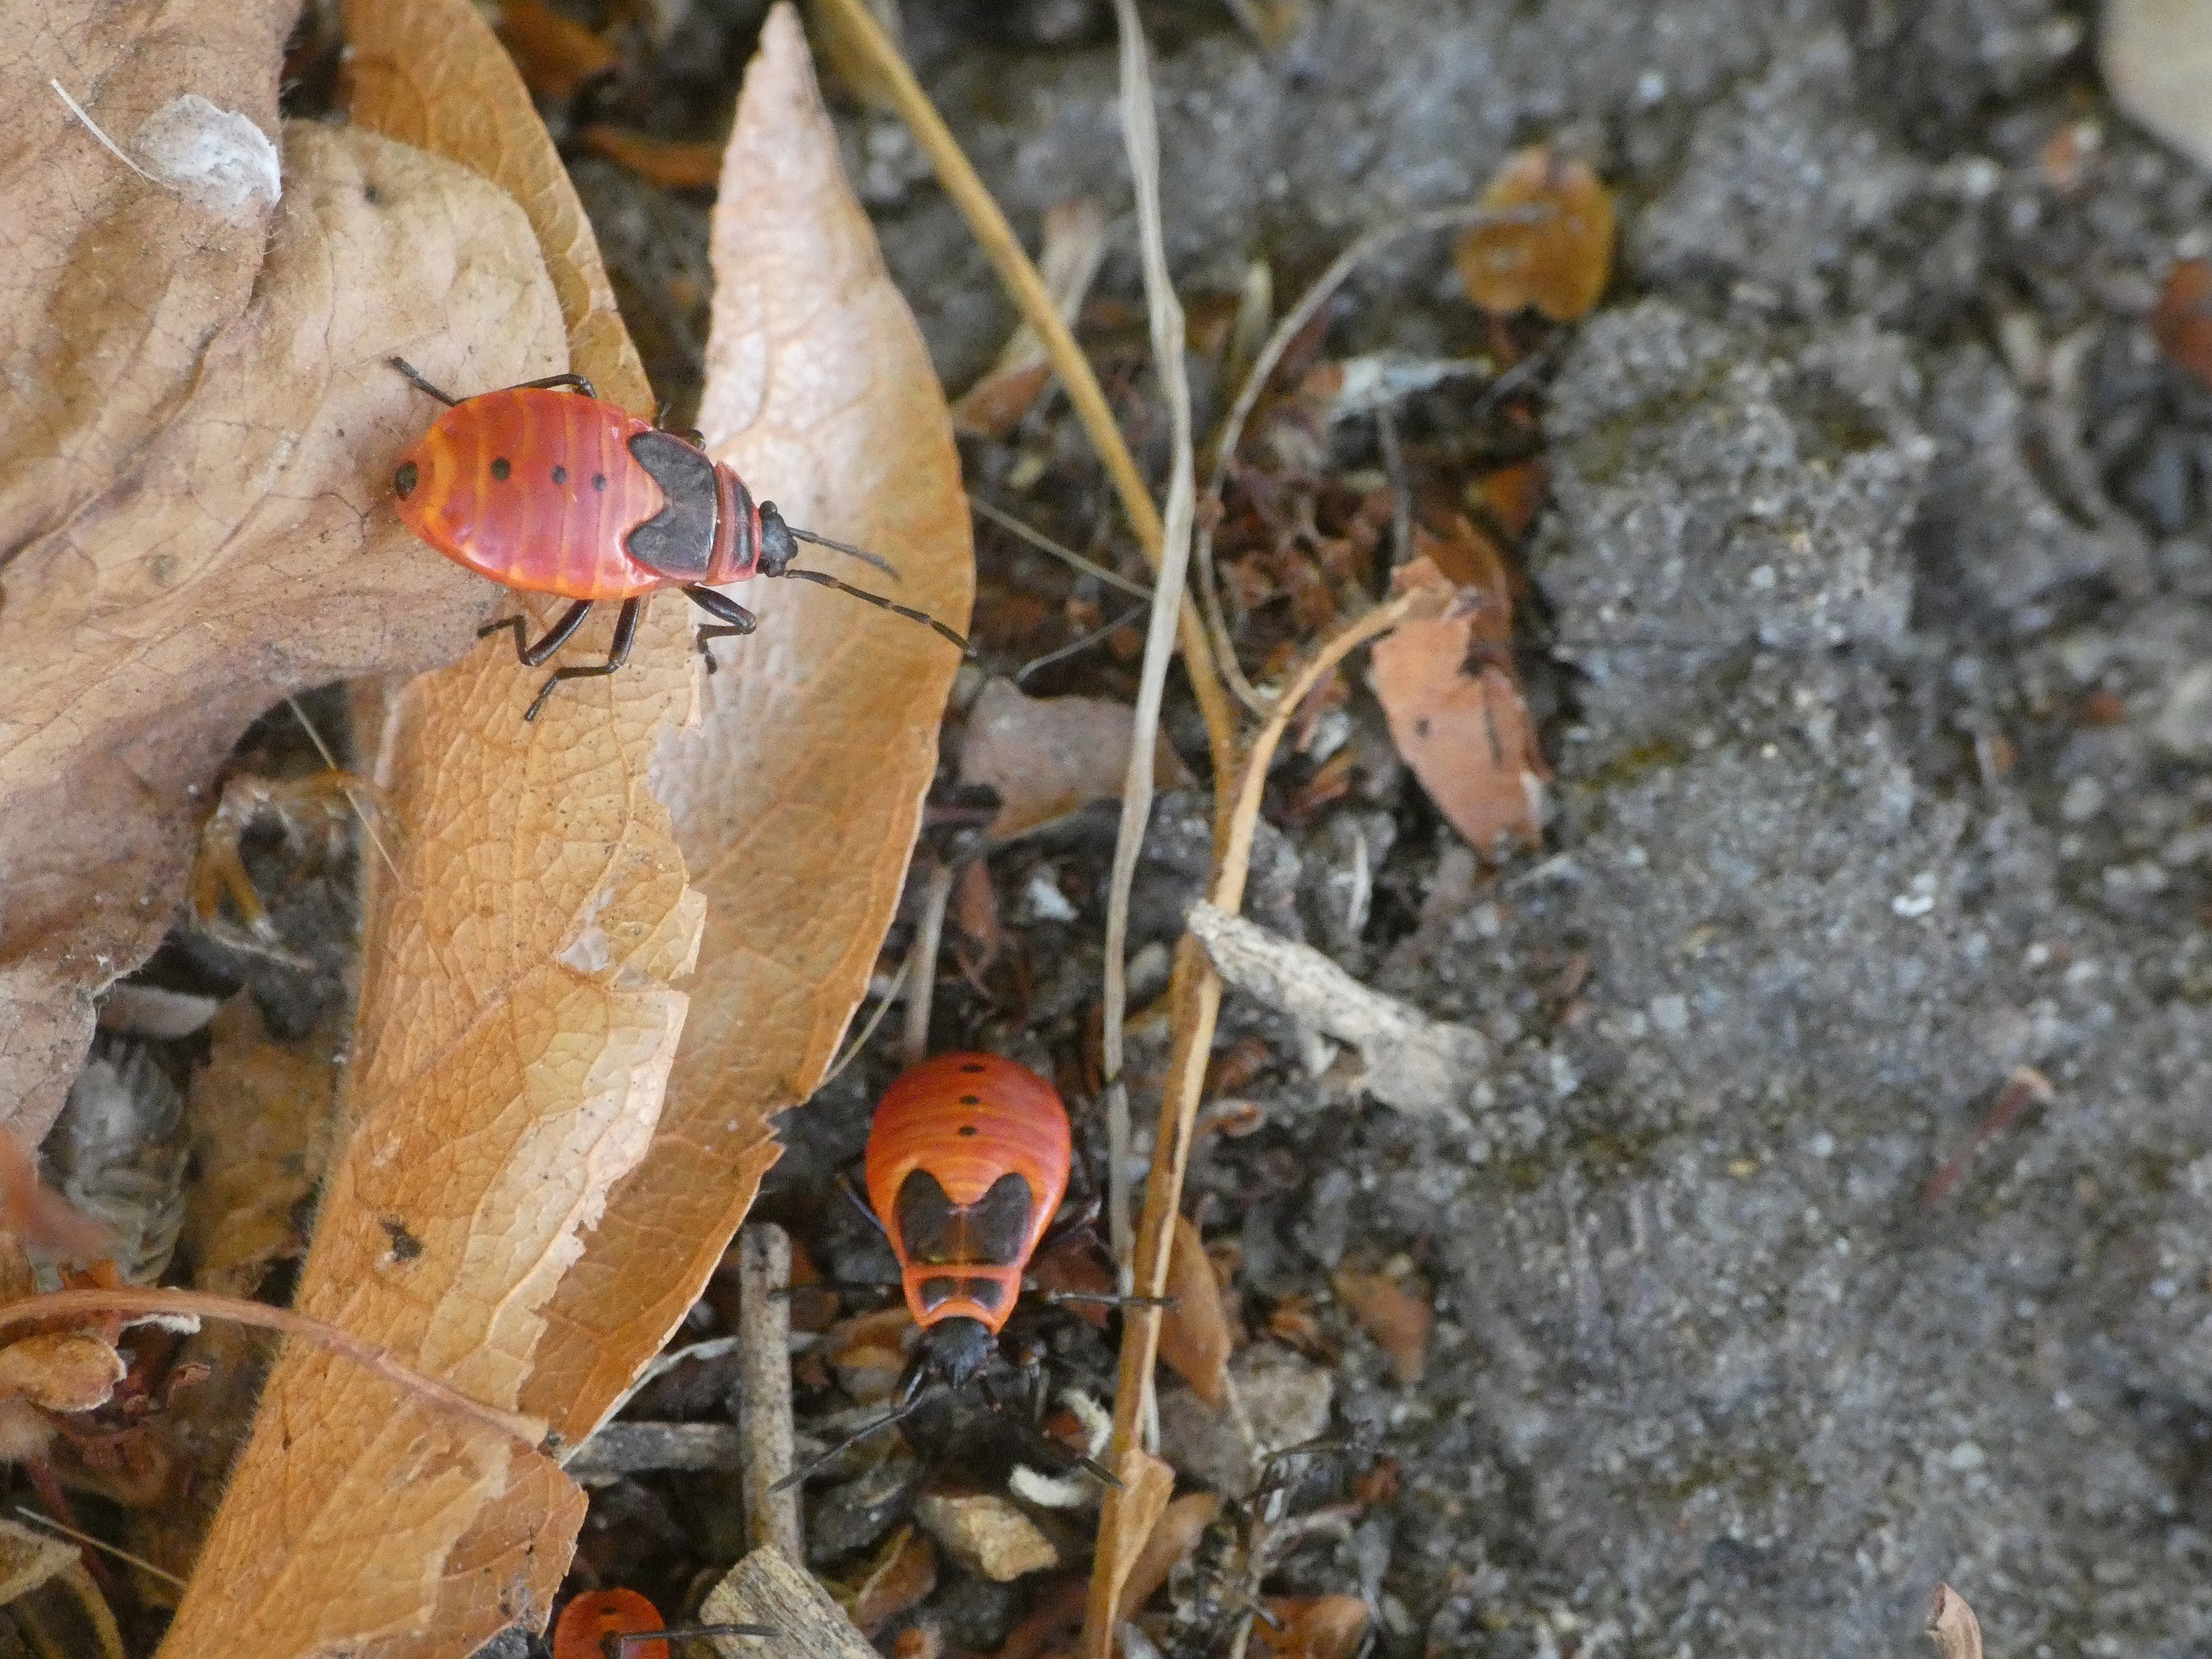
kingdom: Animalia
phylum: Arthropoda
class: Insecta
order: Hemiptera
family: Pyrrhocoridae
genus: Pyrrhocoris
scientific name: Pyrrhocoris apterus
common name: Ildtæge
